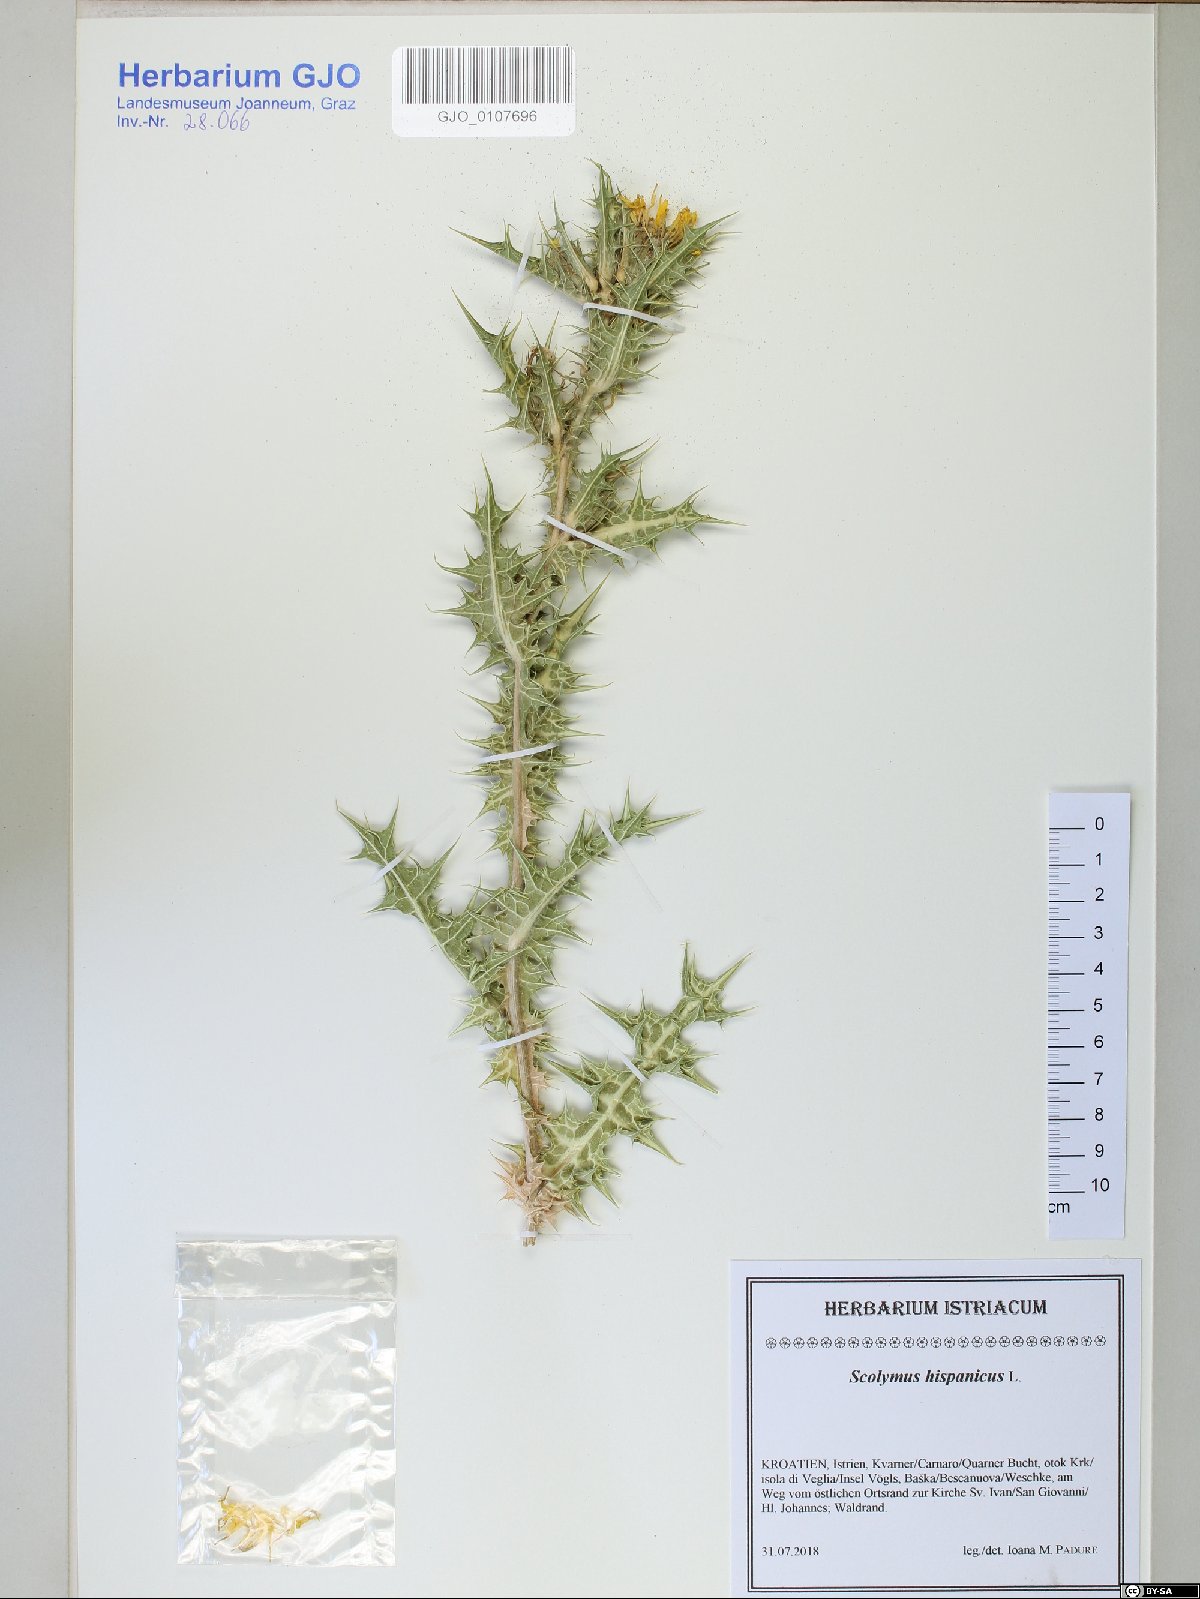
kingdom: Plantae
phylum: Tracheophyta
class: Magnoliopsida
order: Asterales
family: Asteraceae
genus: Scolymus
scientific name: Scolymus hispanicus
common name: Golden thistle
